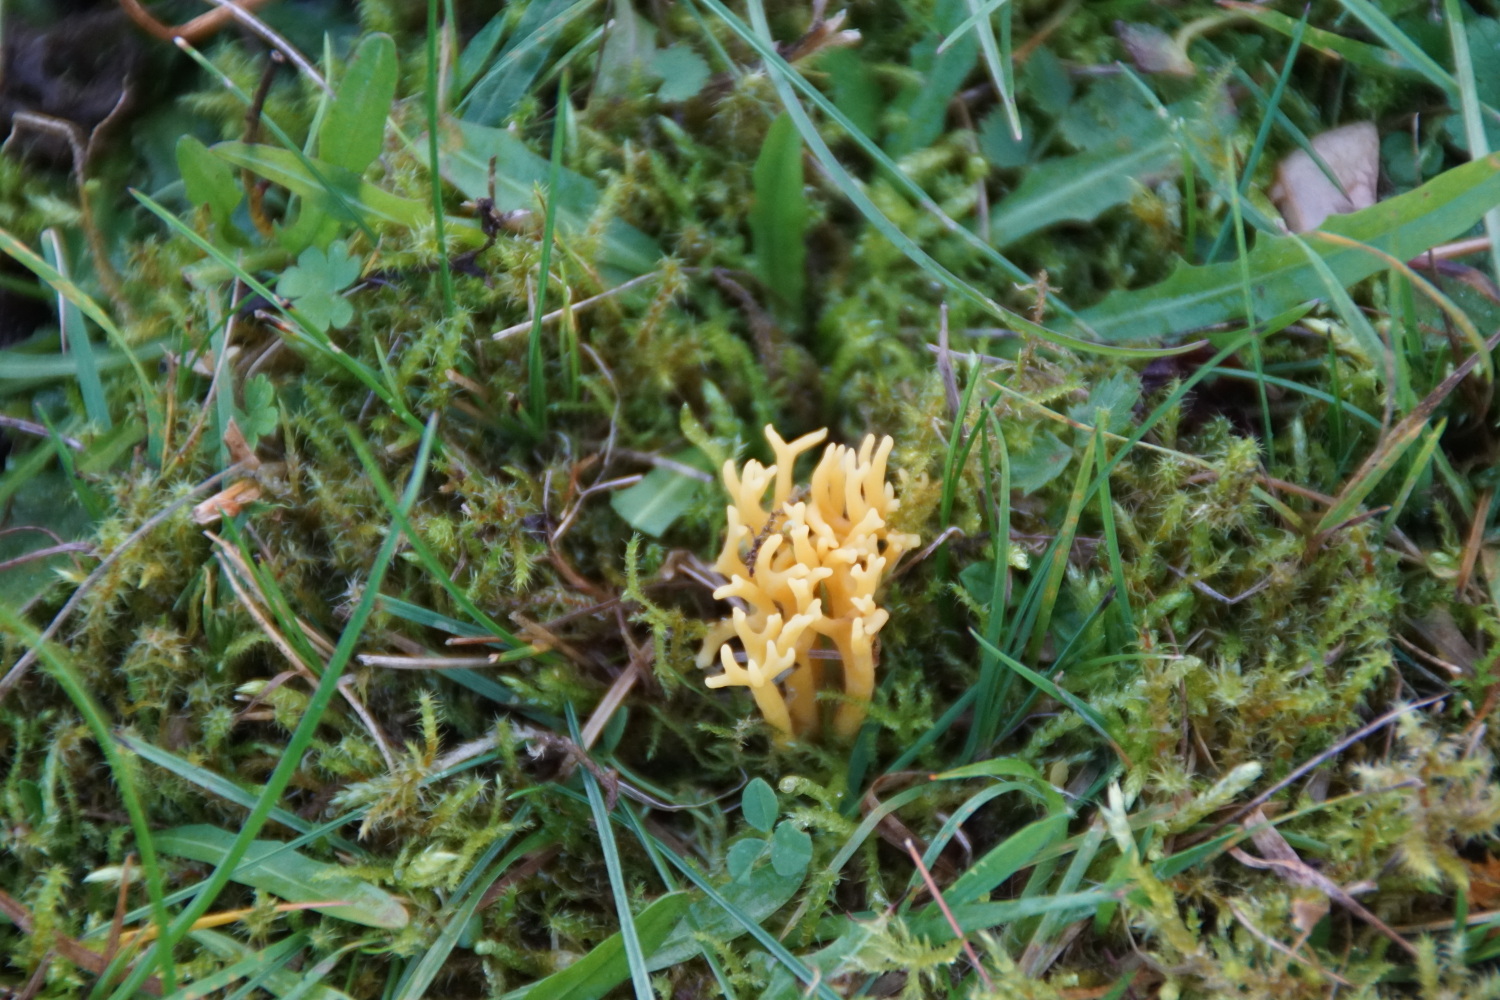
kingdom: Fungi
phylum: Basidiomycota
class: Agaricomycetes
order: Agaricales
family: Clavariaceae
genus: Clavulinopsis
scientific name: Clavulinopsis corniculata
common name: eng-køllesvamp
